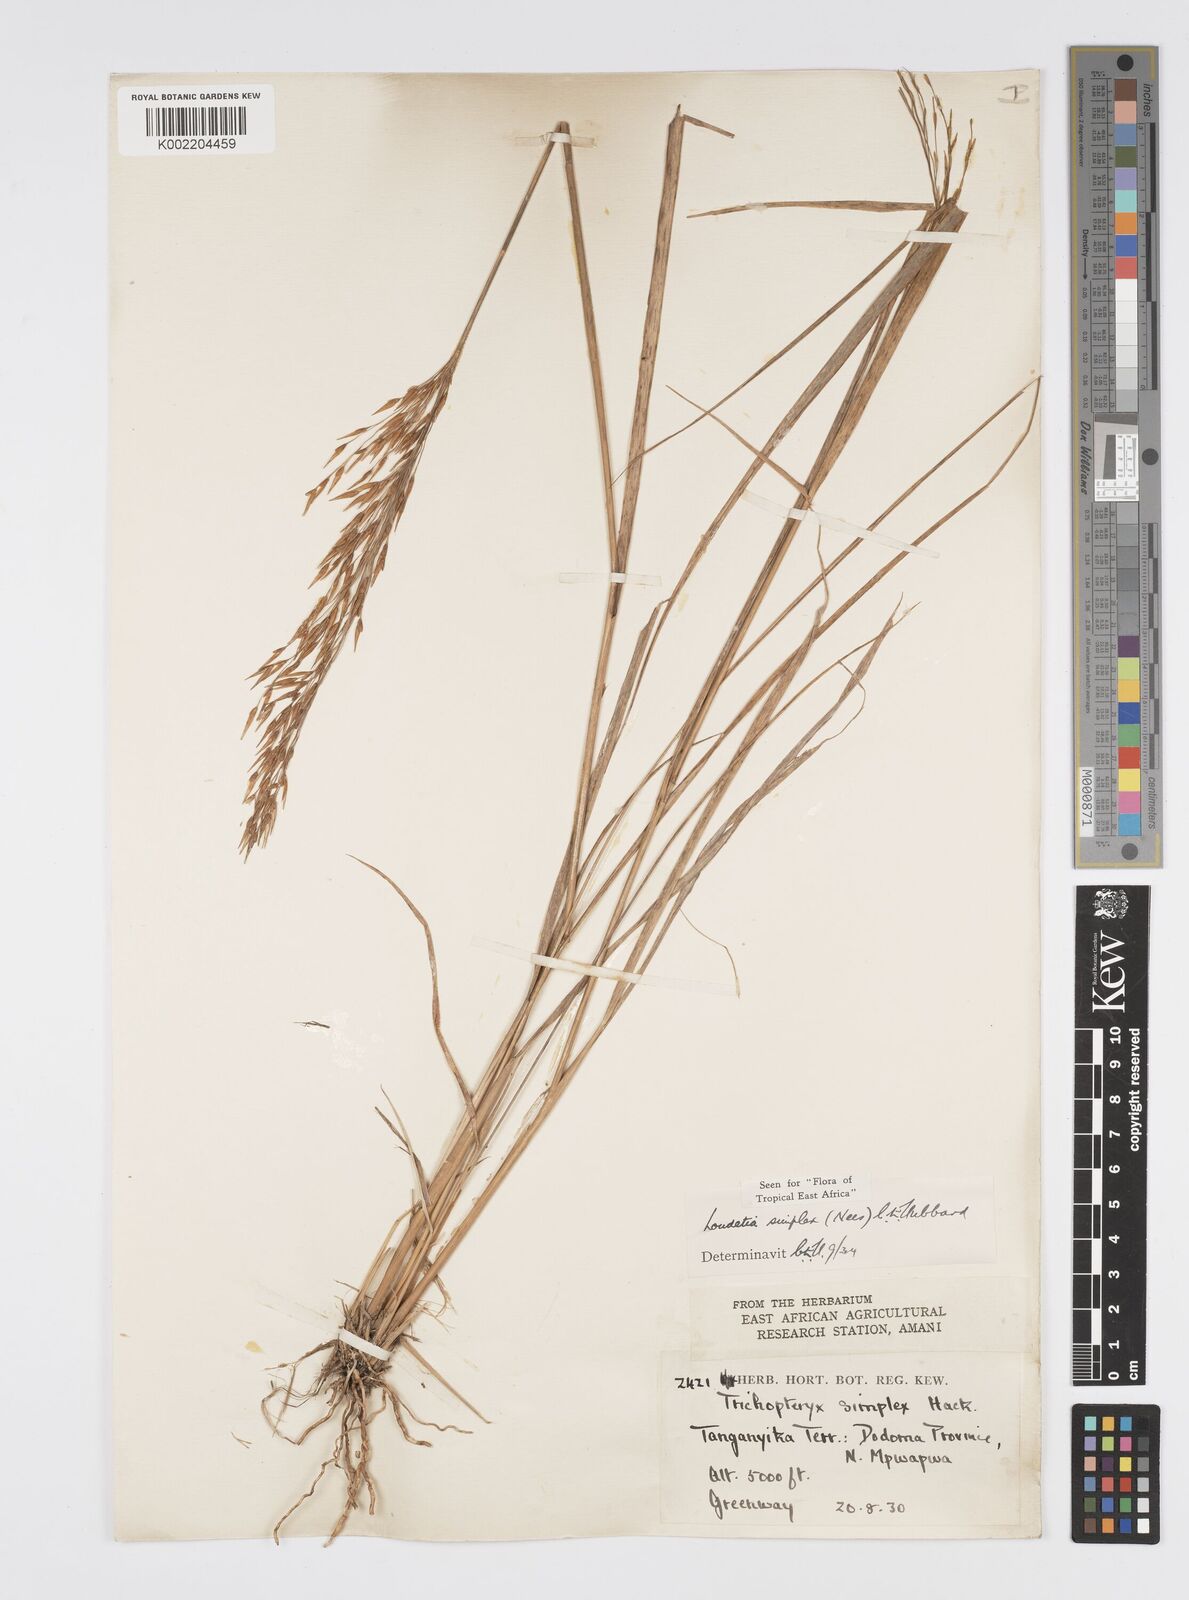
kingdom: Plantae
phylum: Tracheophyta
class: Liliopsida
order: Poales
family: Poaceae
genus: Loudetia
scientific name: Loudetia simplex
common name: Common russet grass
